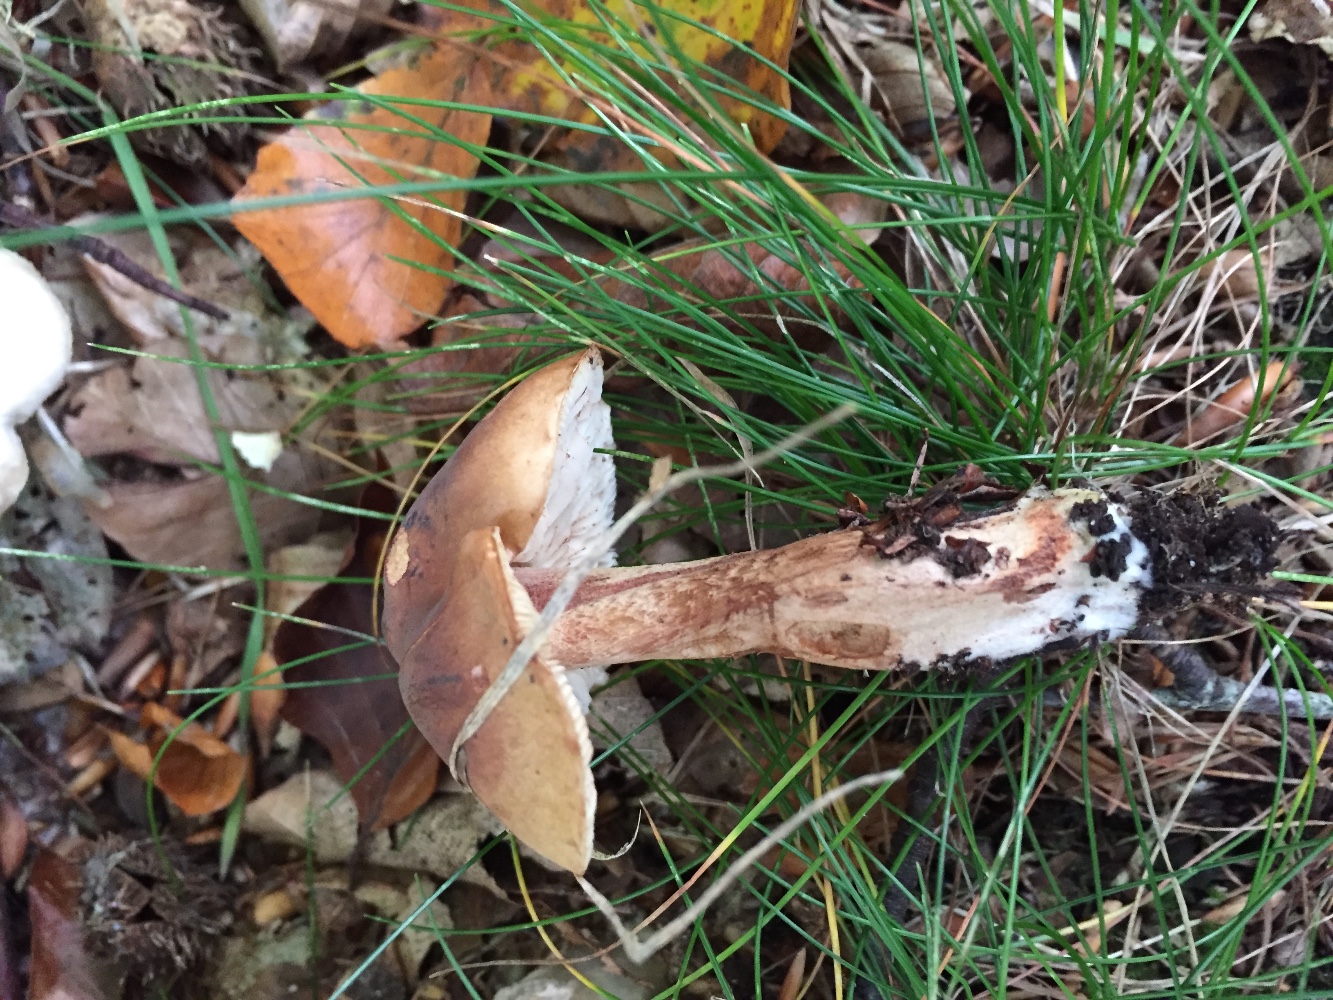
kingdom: Fungi
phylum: Basidiomycota
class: Agaricomycetes
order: Agaricales
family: Tricholomataceae
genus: Tricholoma
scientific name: Tricholoma ustale
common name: sveden ridderhat
